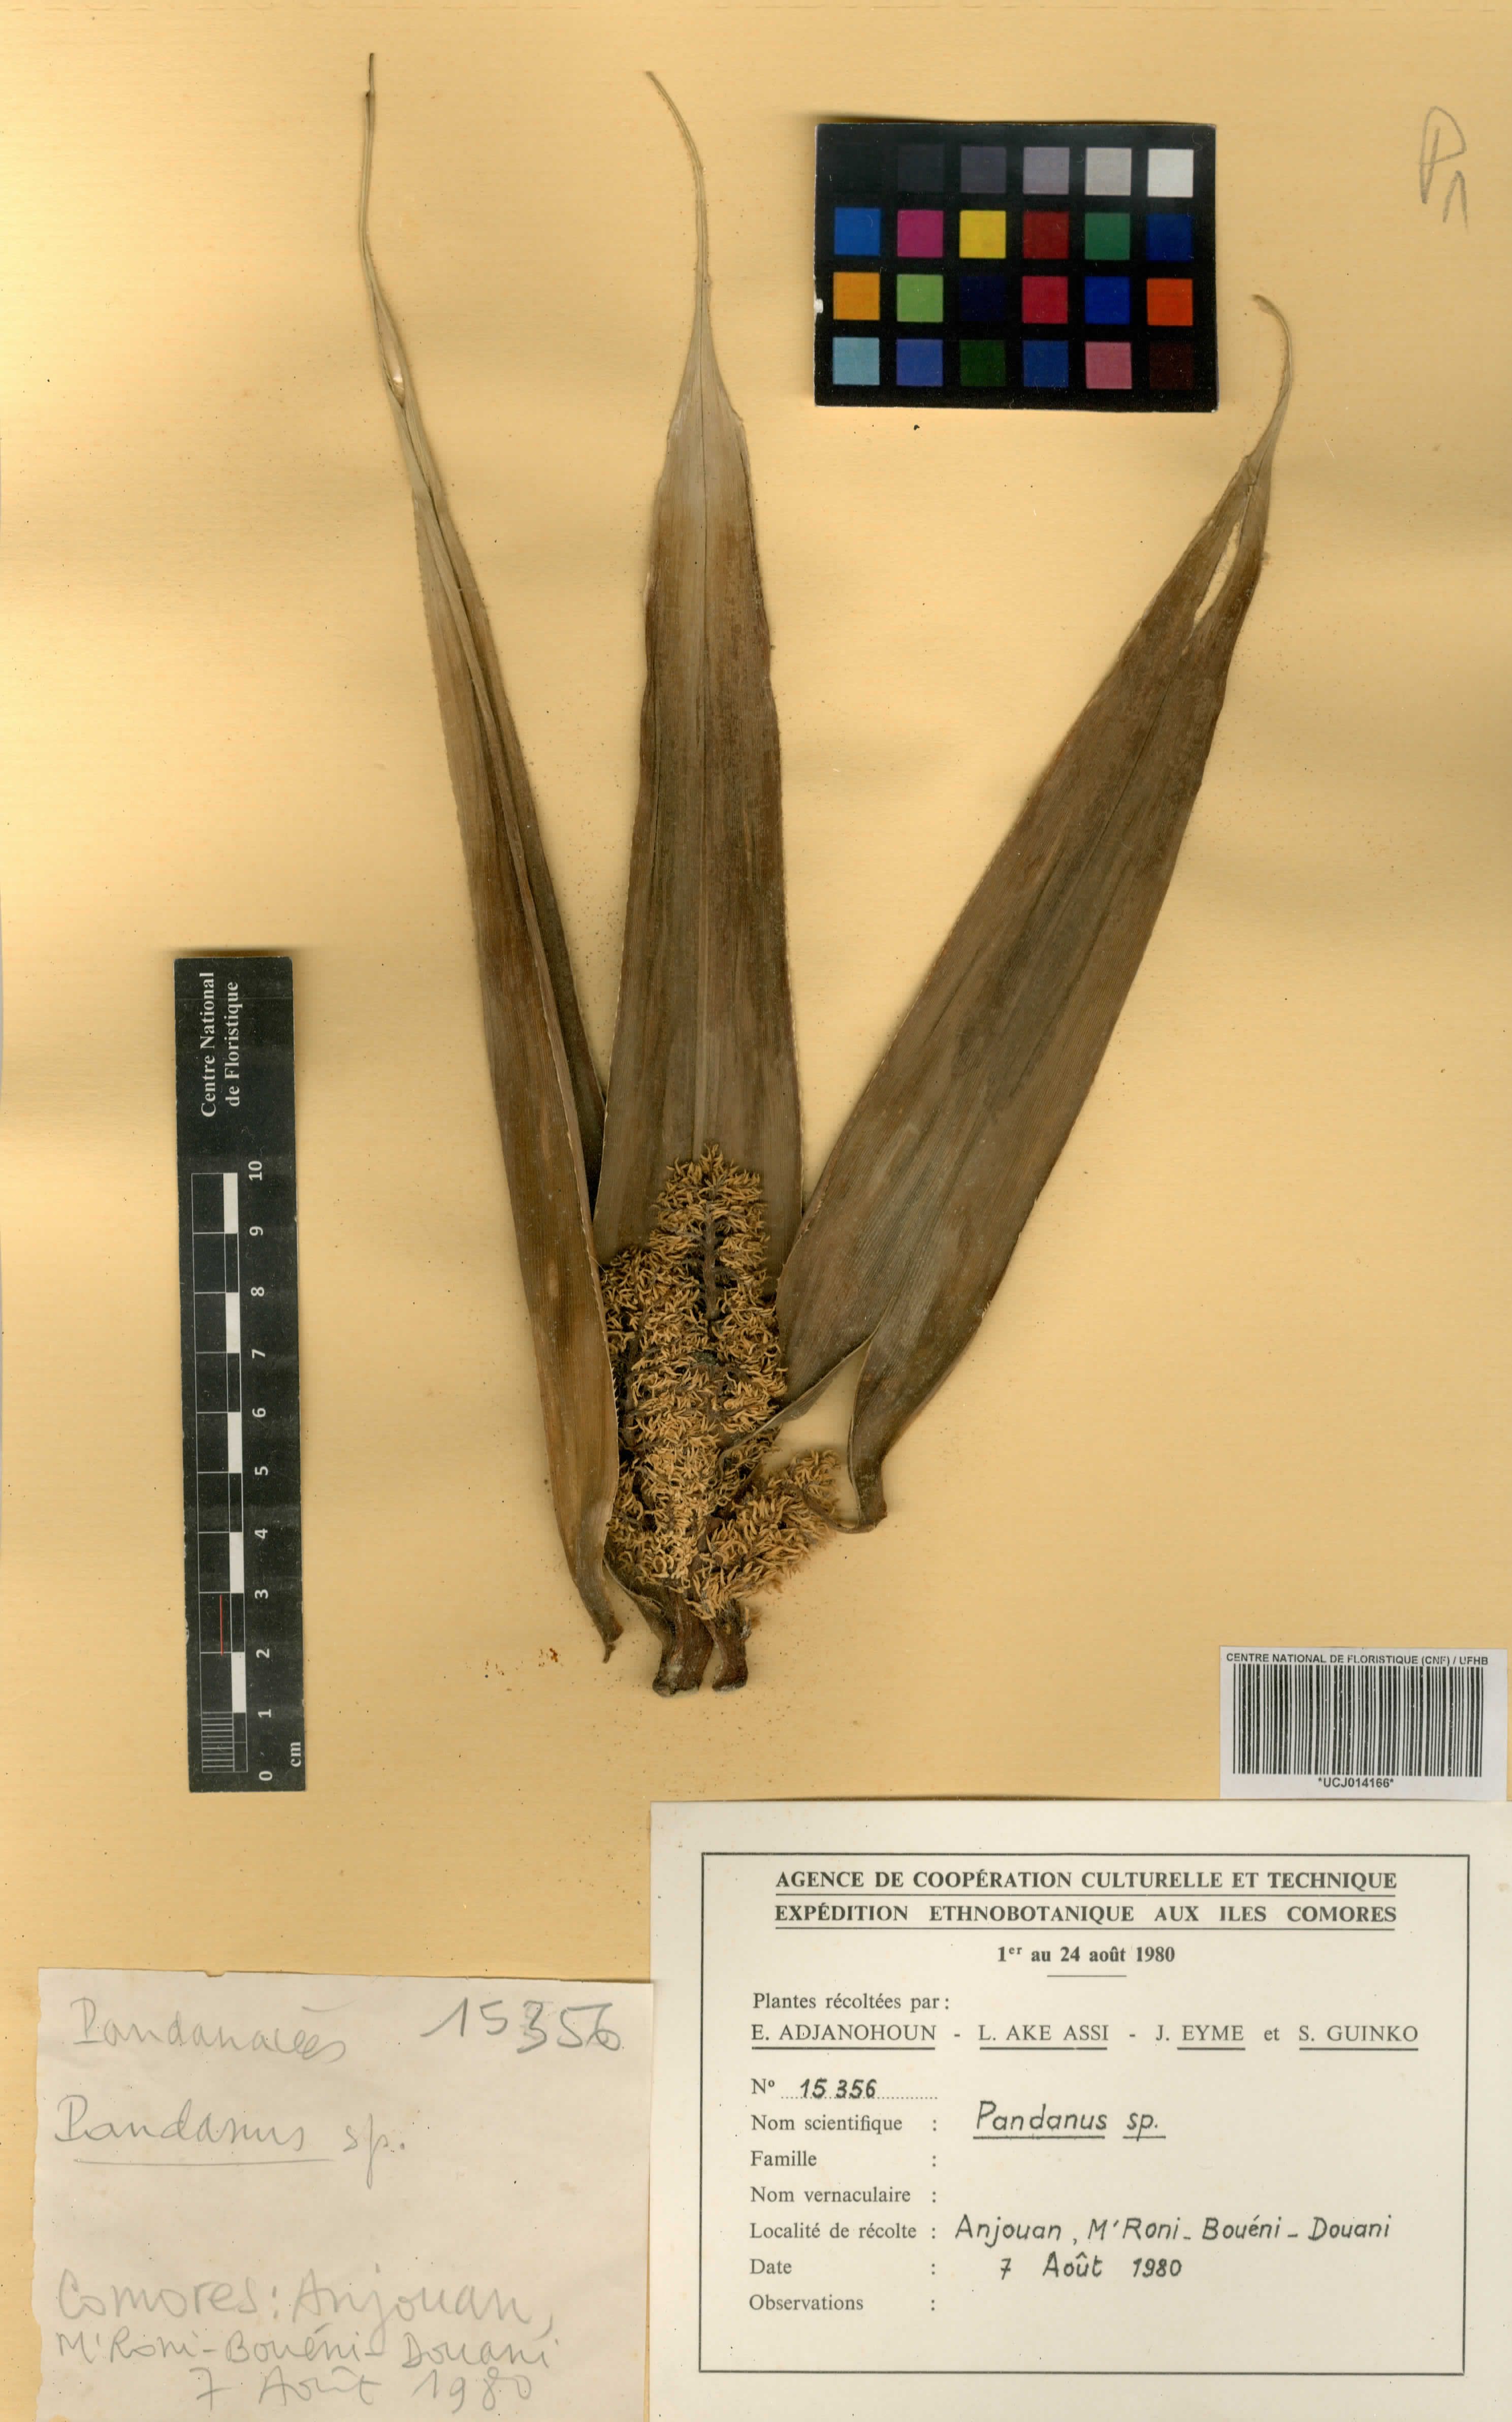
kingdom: Plantae
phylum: Tracheophyta
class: Liliopsida
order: Pandanales
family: Pandanaceae
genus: Pandanus
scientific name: Pandanus candelabrum
